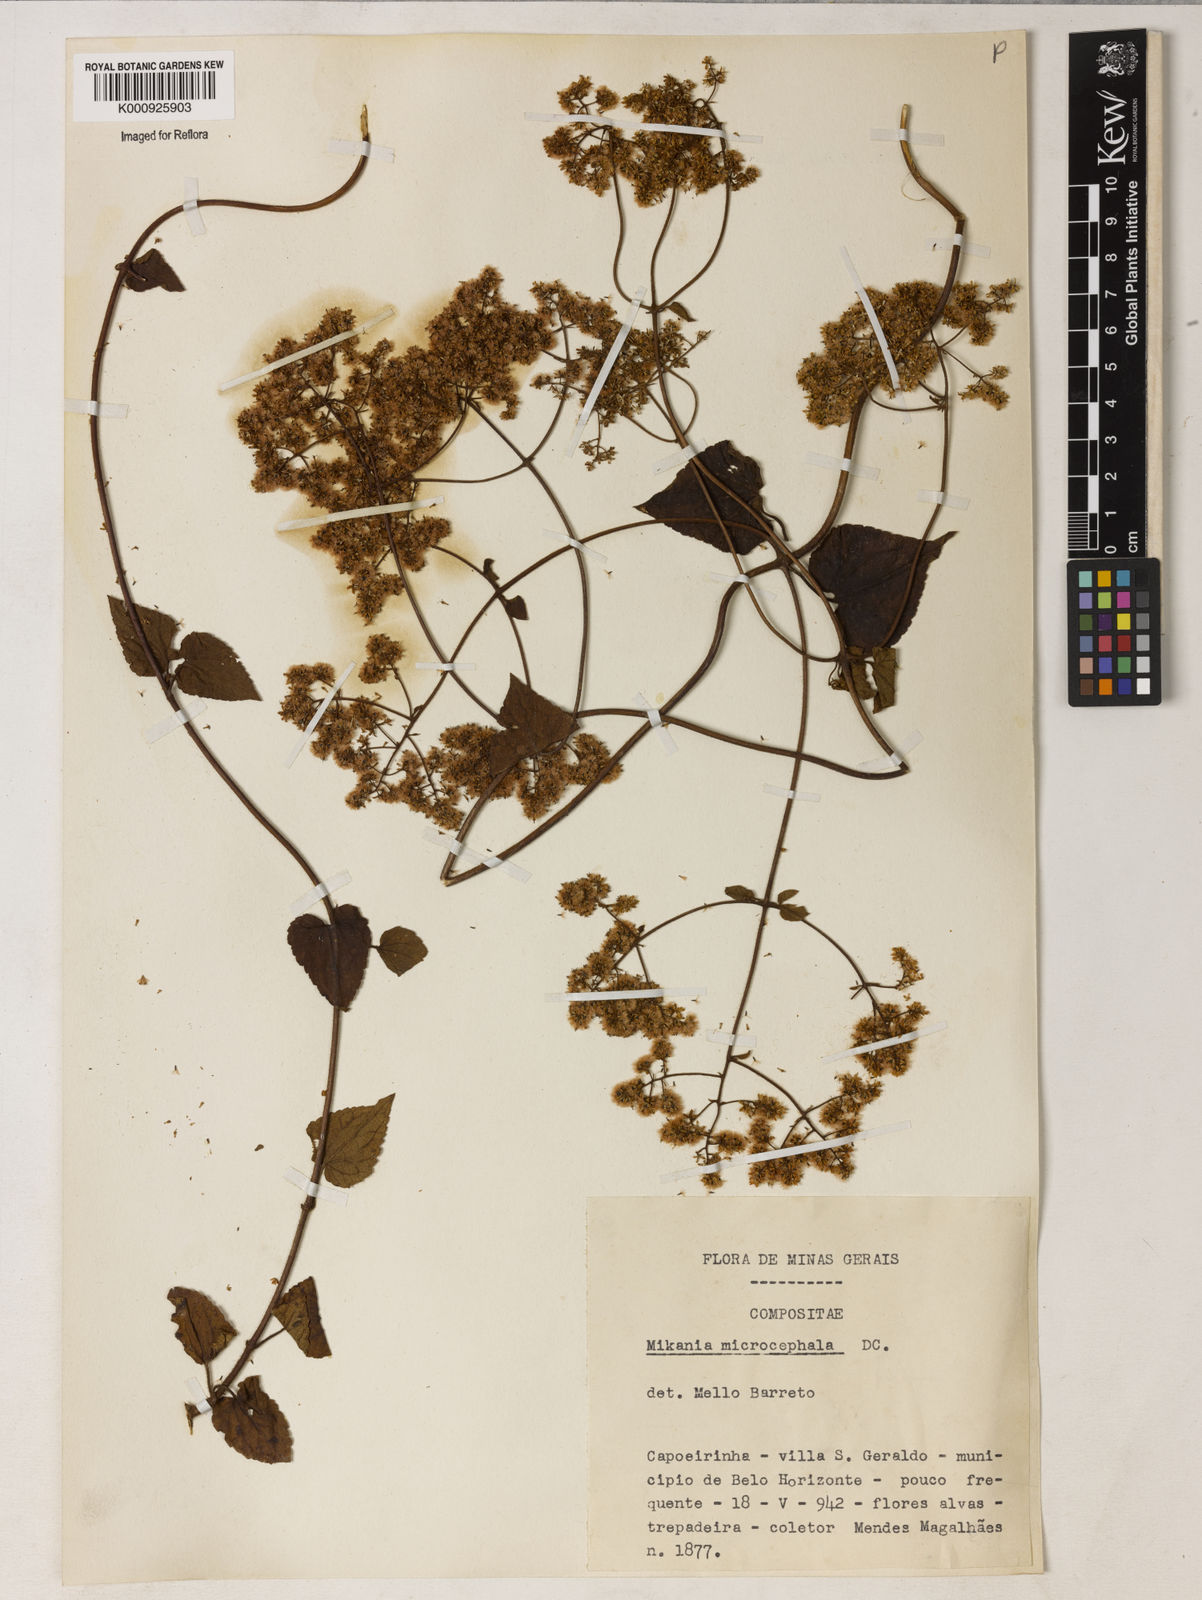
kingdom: Plantae
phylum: Tracheophyta
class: Magnoliopsida
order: Asterales
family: Asteraceae
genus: Mikania
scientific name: Mikania microcephala
